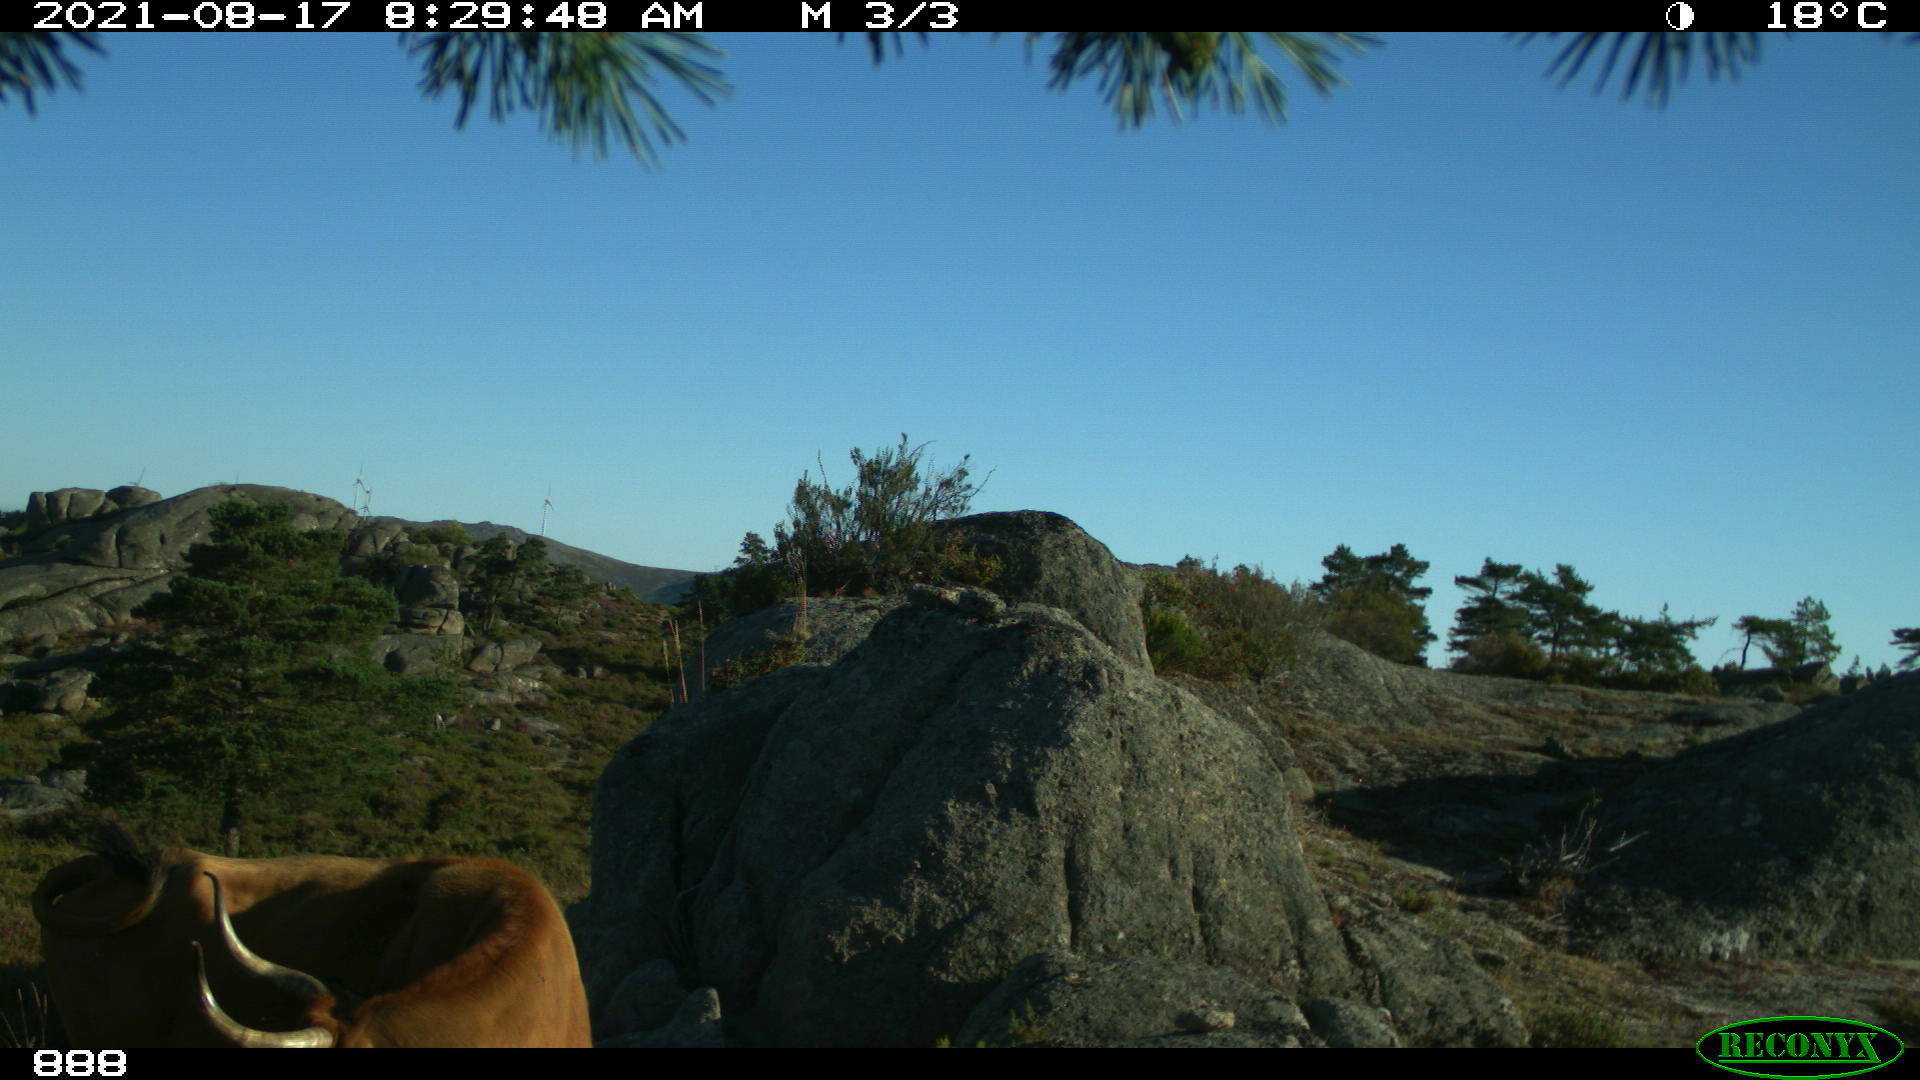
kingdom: Animalia
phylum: Chordata
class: Mammalia
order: Artiodactyla
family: Bovidae
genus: Bos
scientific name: Bos taurus
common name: Domesticated cattle
